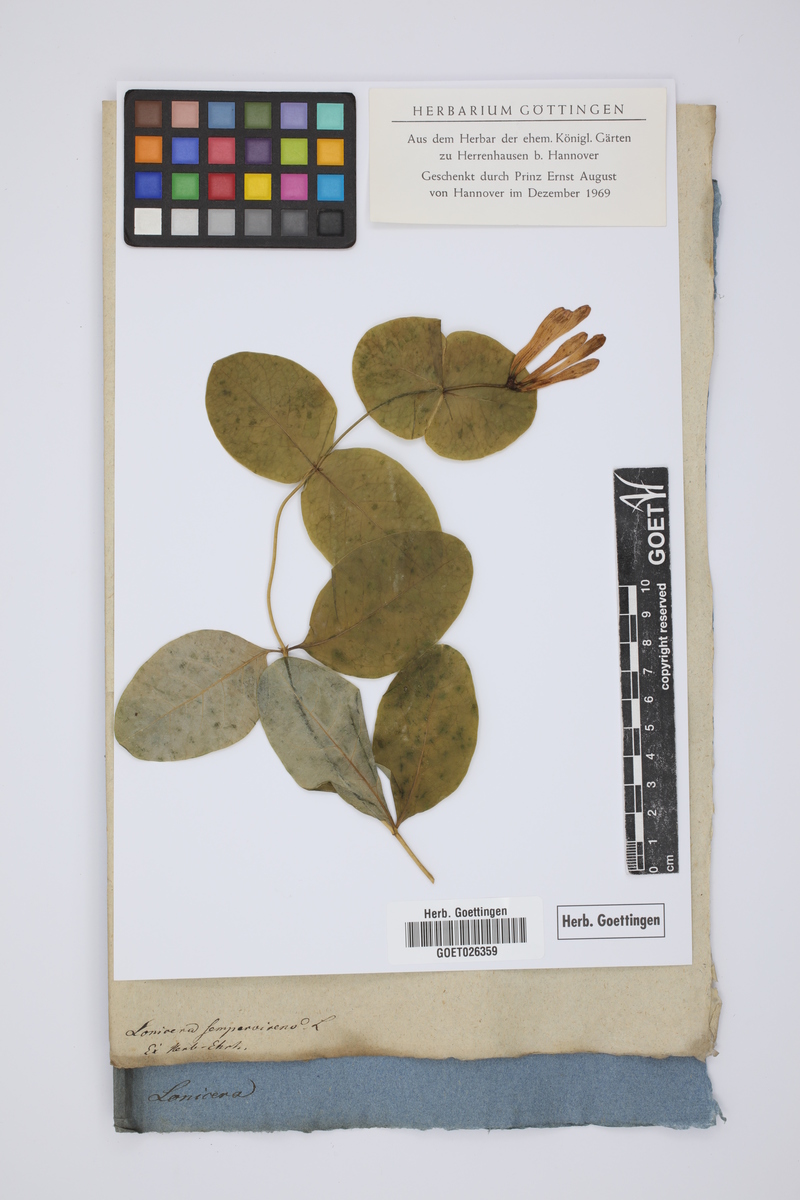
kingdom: Plantae
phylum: Tracheophyta
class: Magnoliopsida
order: Dipsacales
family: Caprifoliaceae
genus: Lonicera
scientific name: Lonicera sempervirens
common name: Coral honeysuckle
